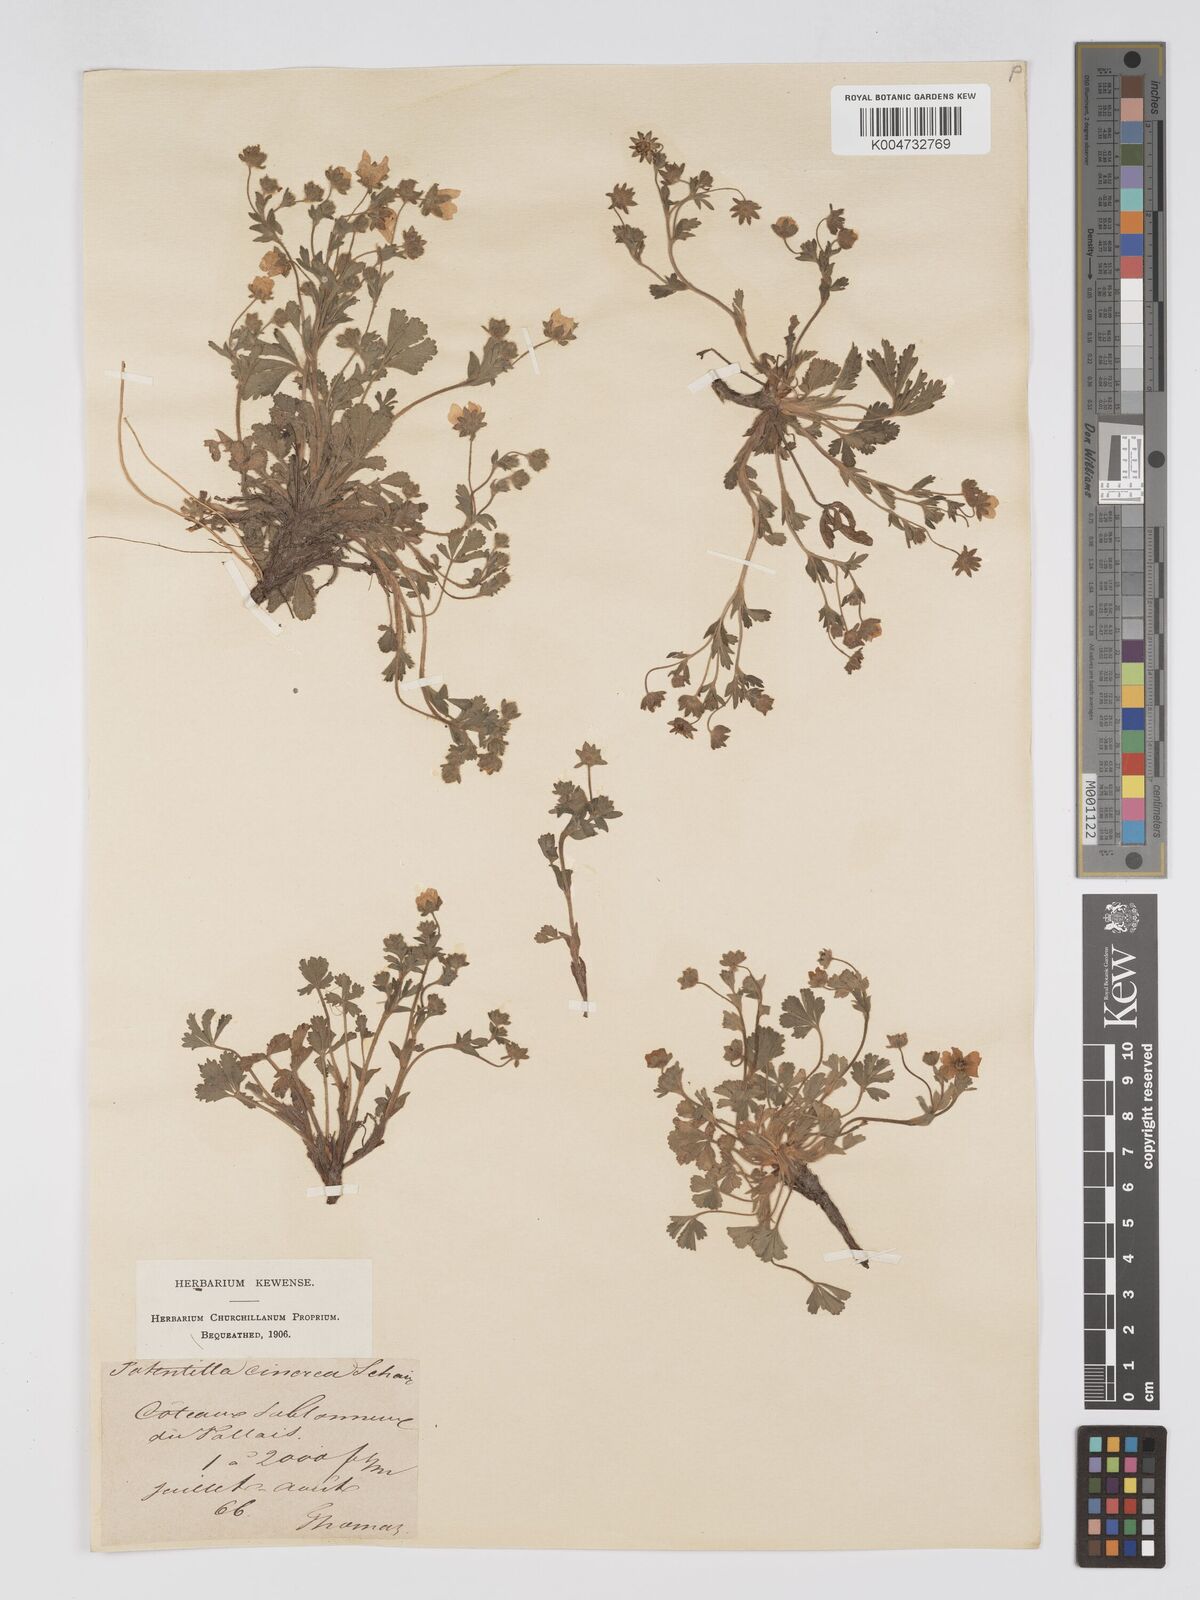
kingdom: Plantae
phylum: Tracheophyta
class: Magnoliopsida
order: Rosales
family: Rosaceae
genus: Potentilla
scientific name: Potentilla
